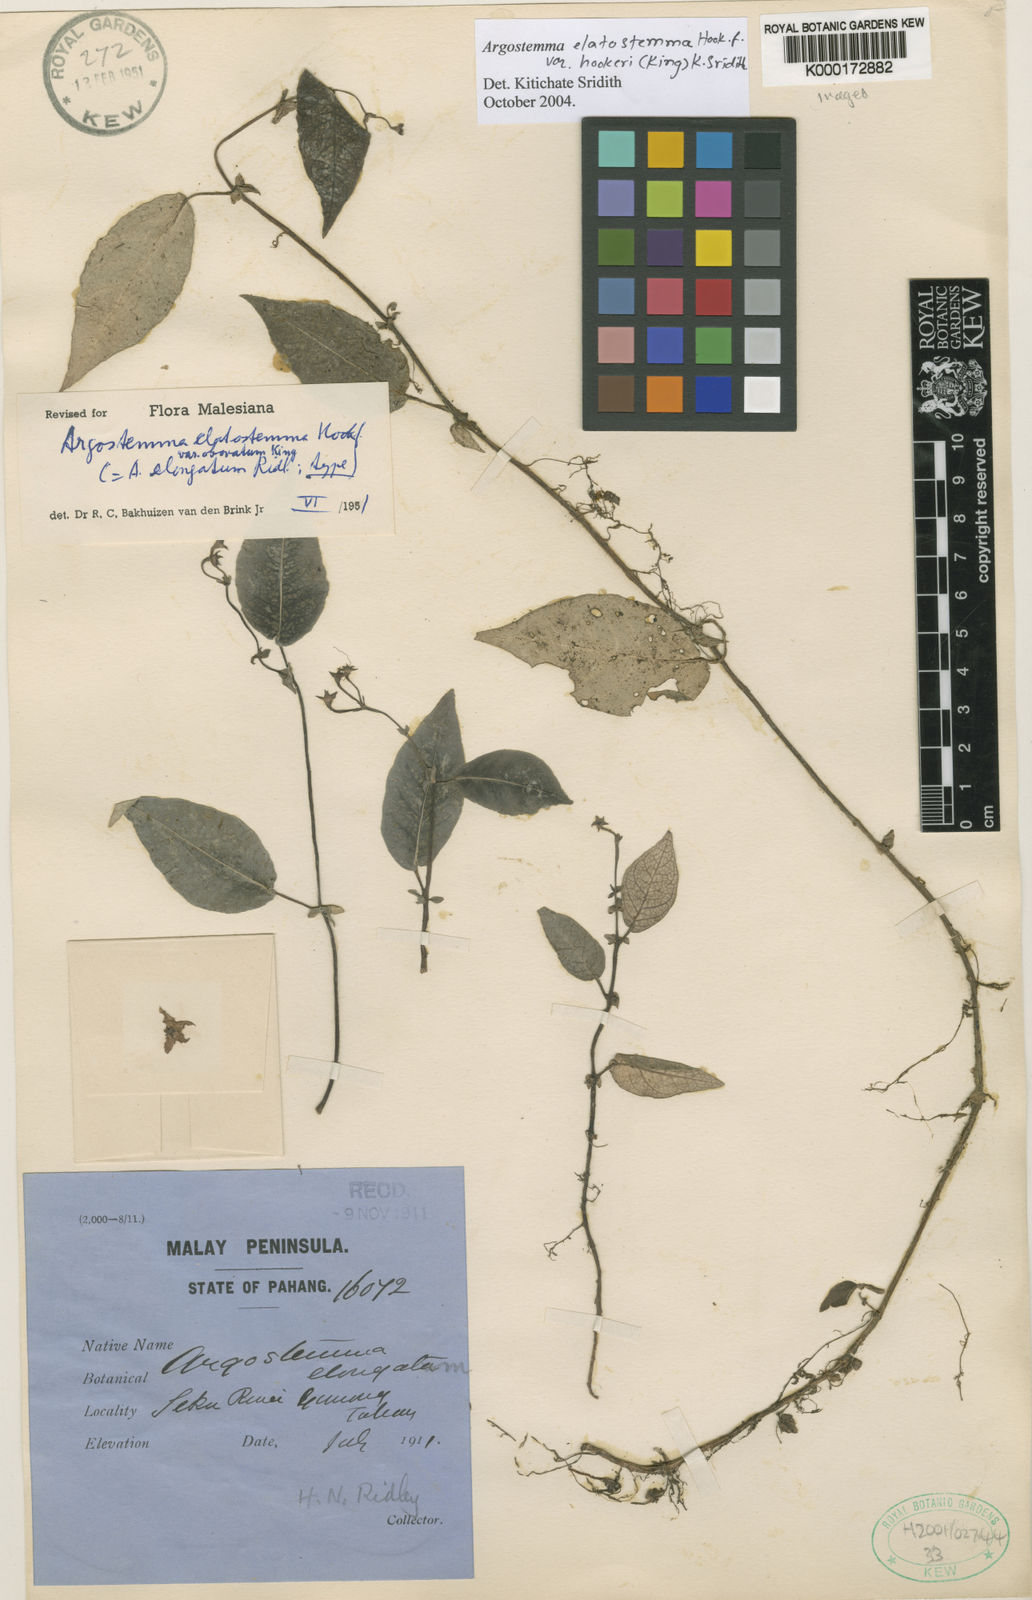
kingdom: Plantae
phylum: Tracheophyta
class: Magnoliopsida
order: Gentianales
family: Rubiaceae
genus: Argostemma
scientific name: Argostemma elatostemma
